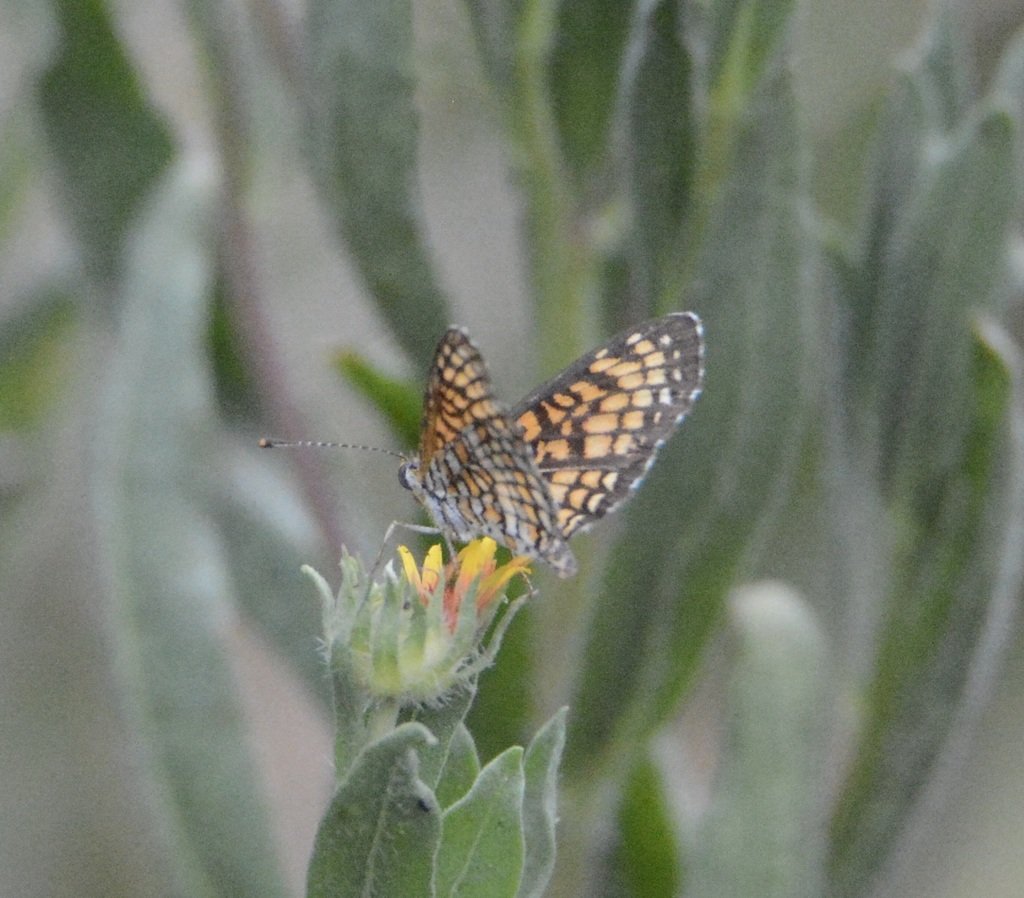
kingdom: Animalia
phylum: Arthropoda
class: Insecta
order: Lepidoptera
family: Nymphalidae
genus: Texola
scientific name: Texola
